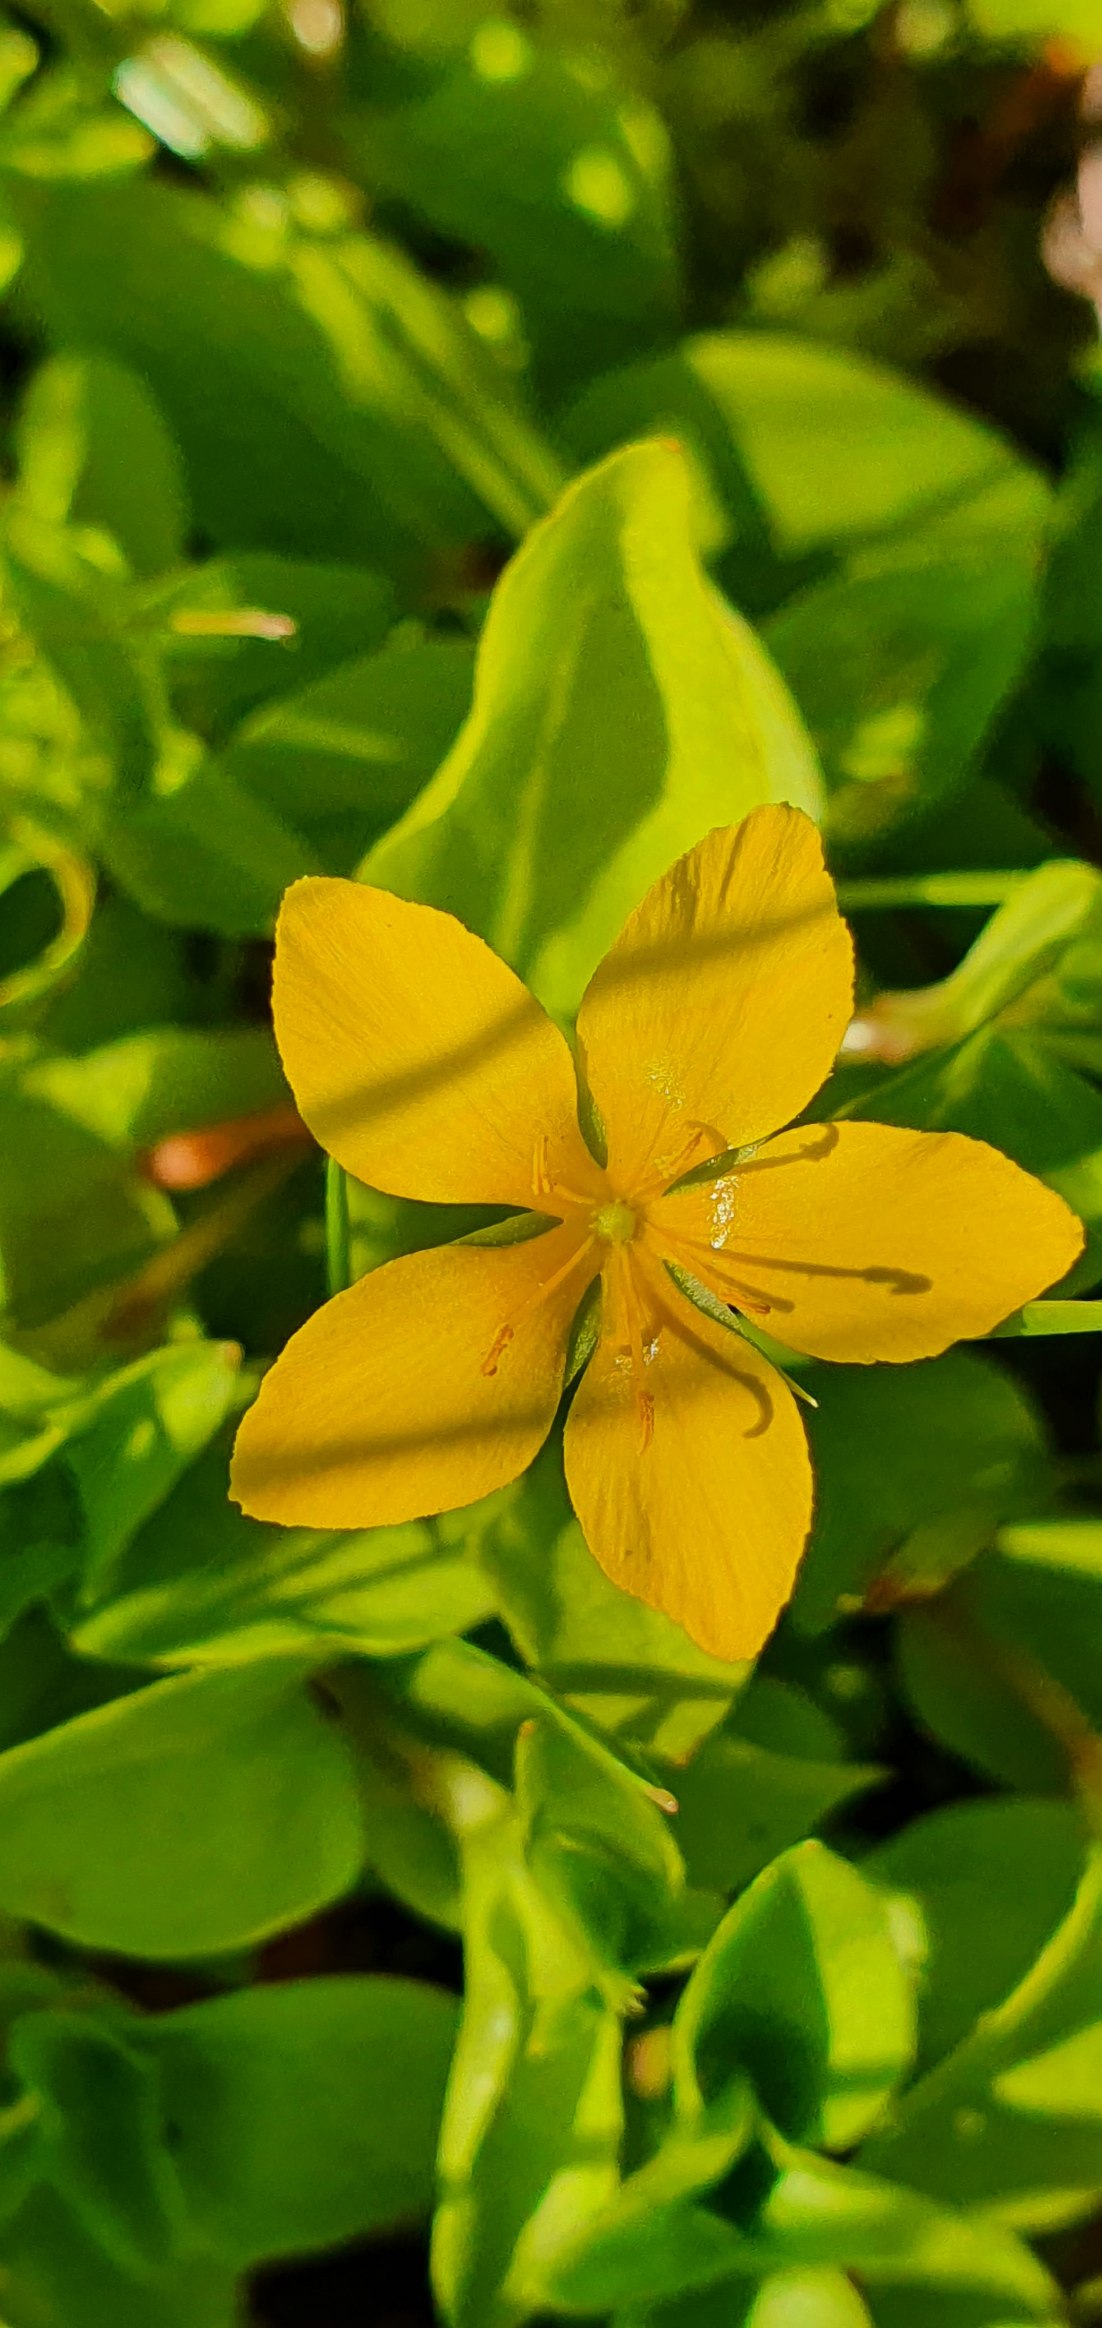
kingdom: Plantae
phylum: Tracheophyta
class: Magnoliopsida
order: Ericales
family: Primulaceae
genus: Lysimachia
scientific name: Lysimachia nemorum
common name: Lund-fredløs
